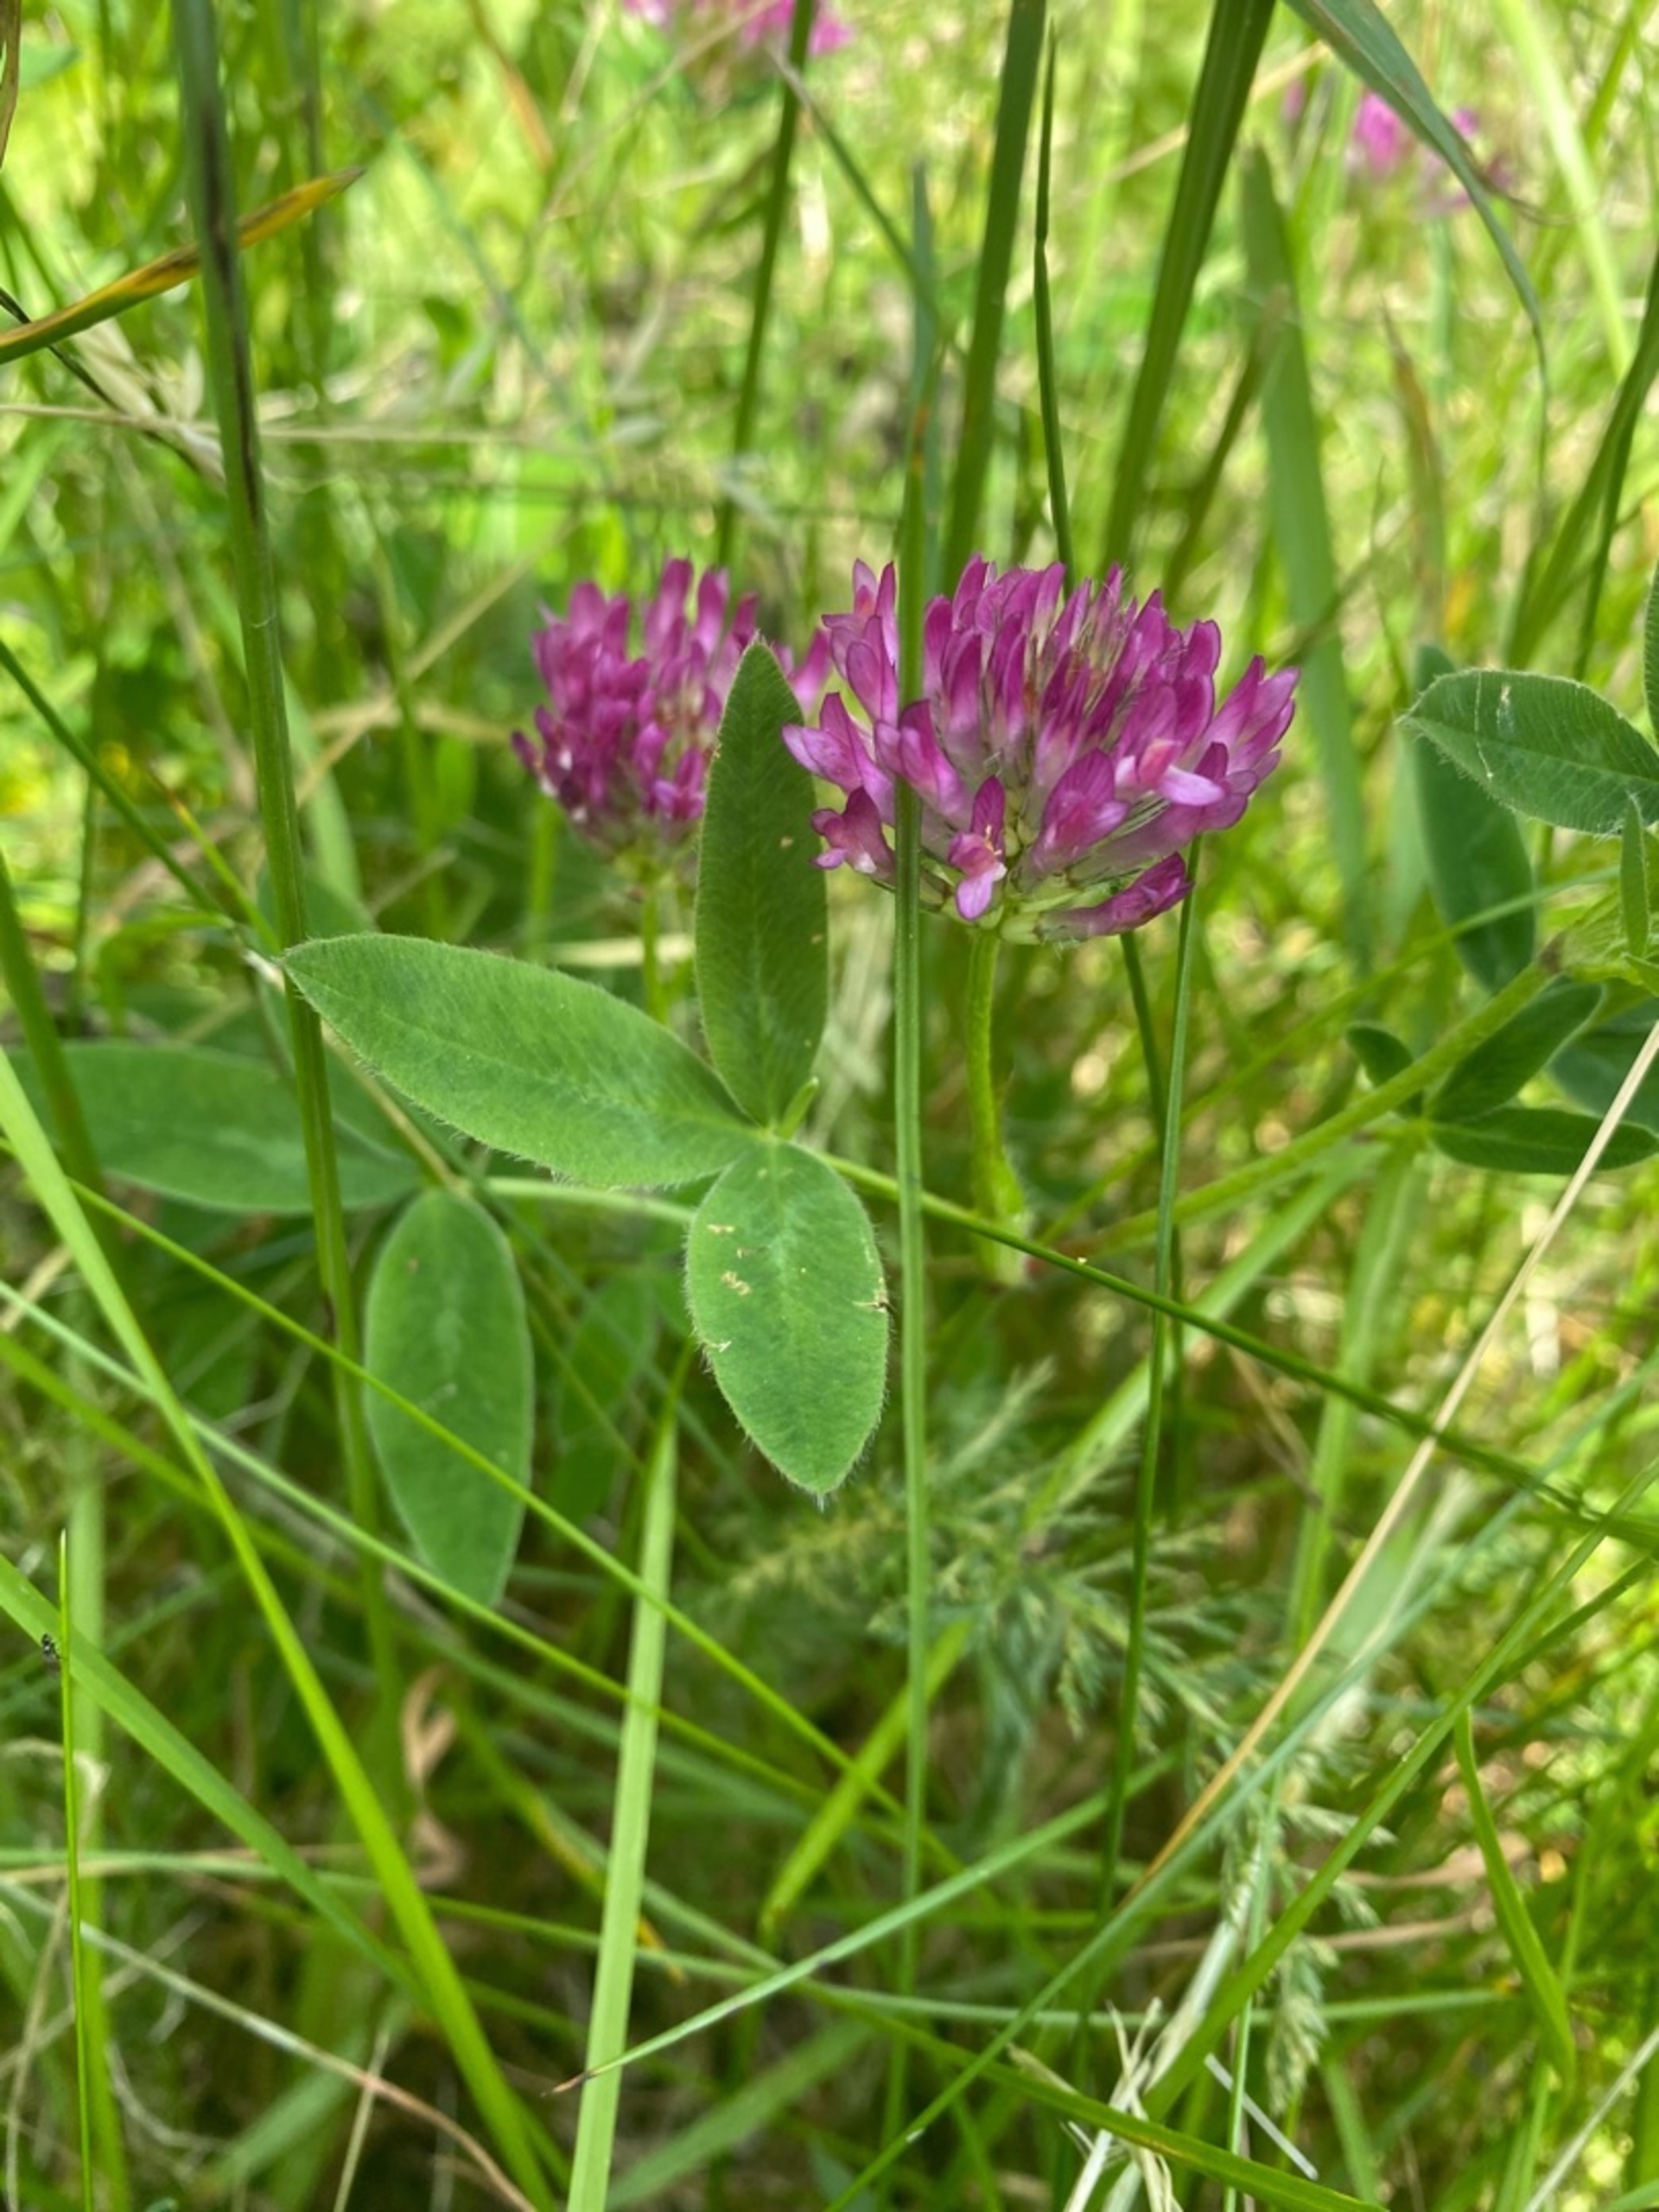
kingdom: Plantae
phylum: Tracheophyta
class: Magnoliopsida
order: Fabales
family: Fabaceae
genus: Trifolium
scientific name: Trifolium medium
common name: Bugtet kløver
